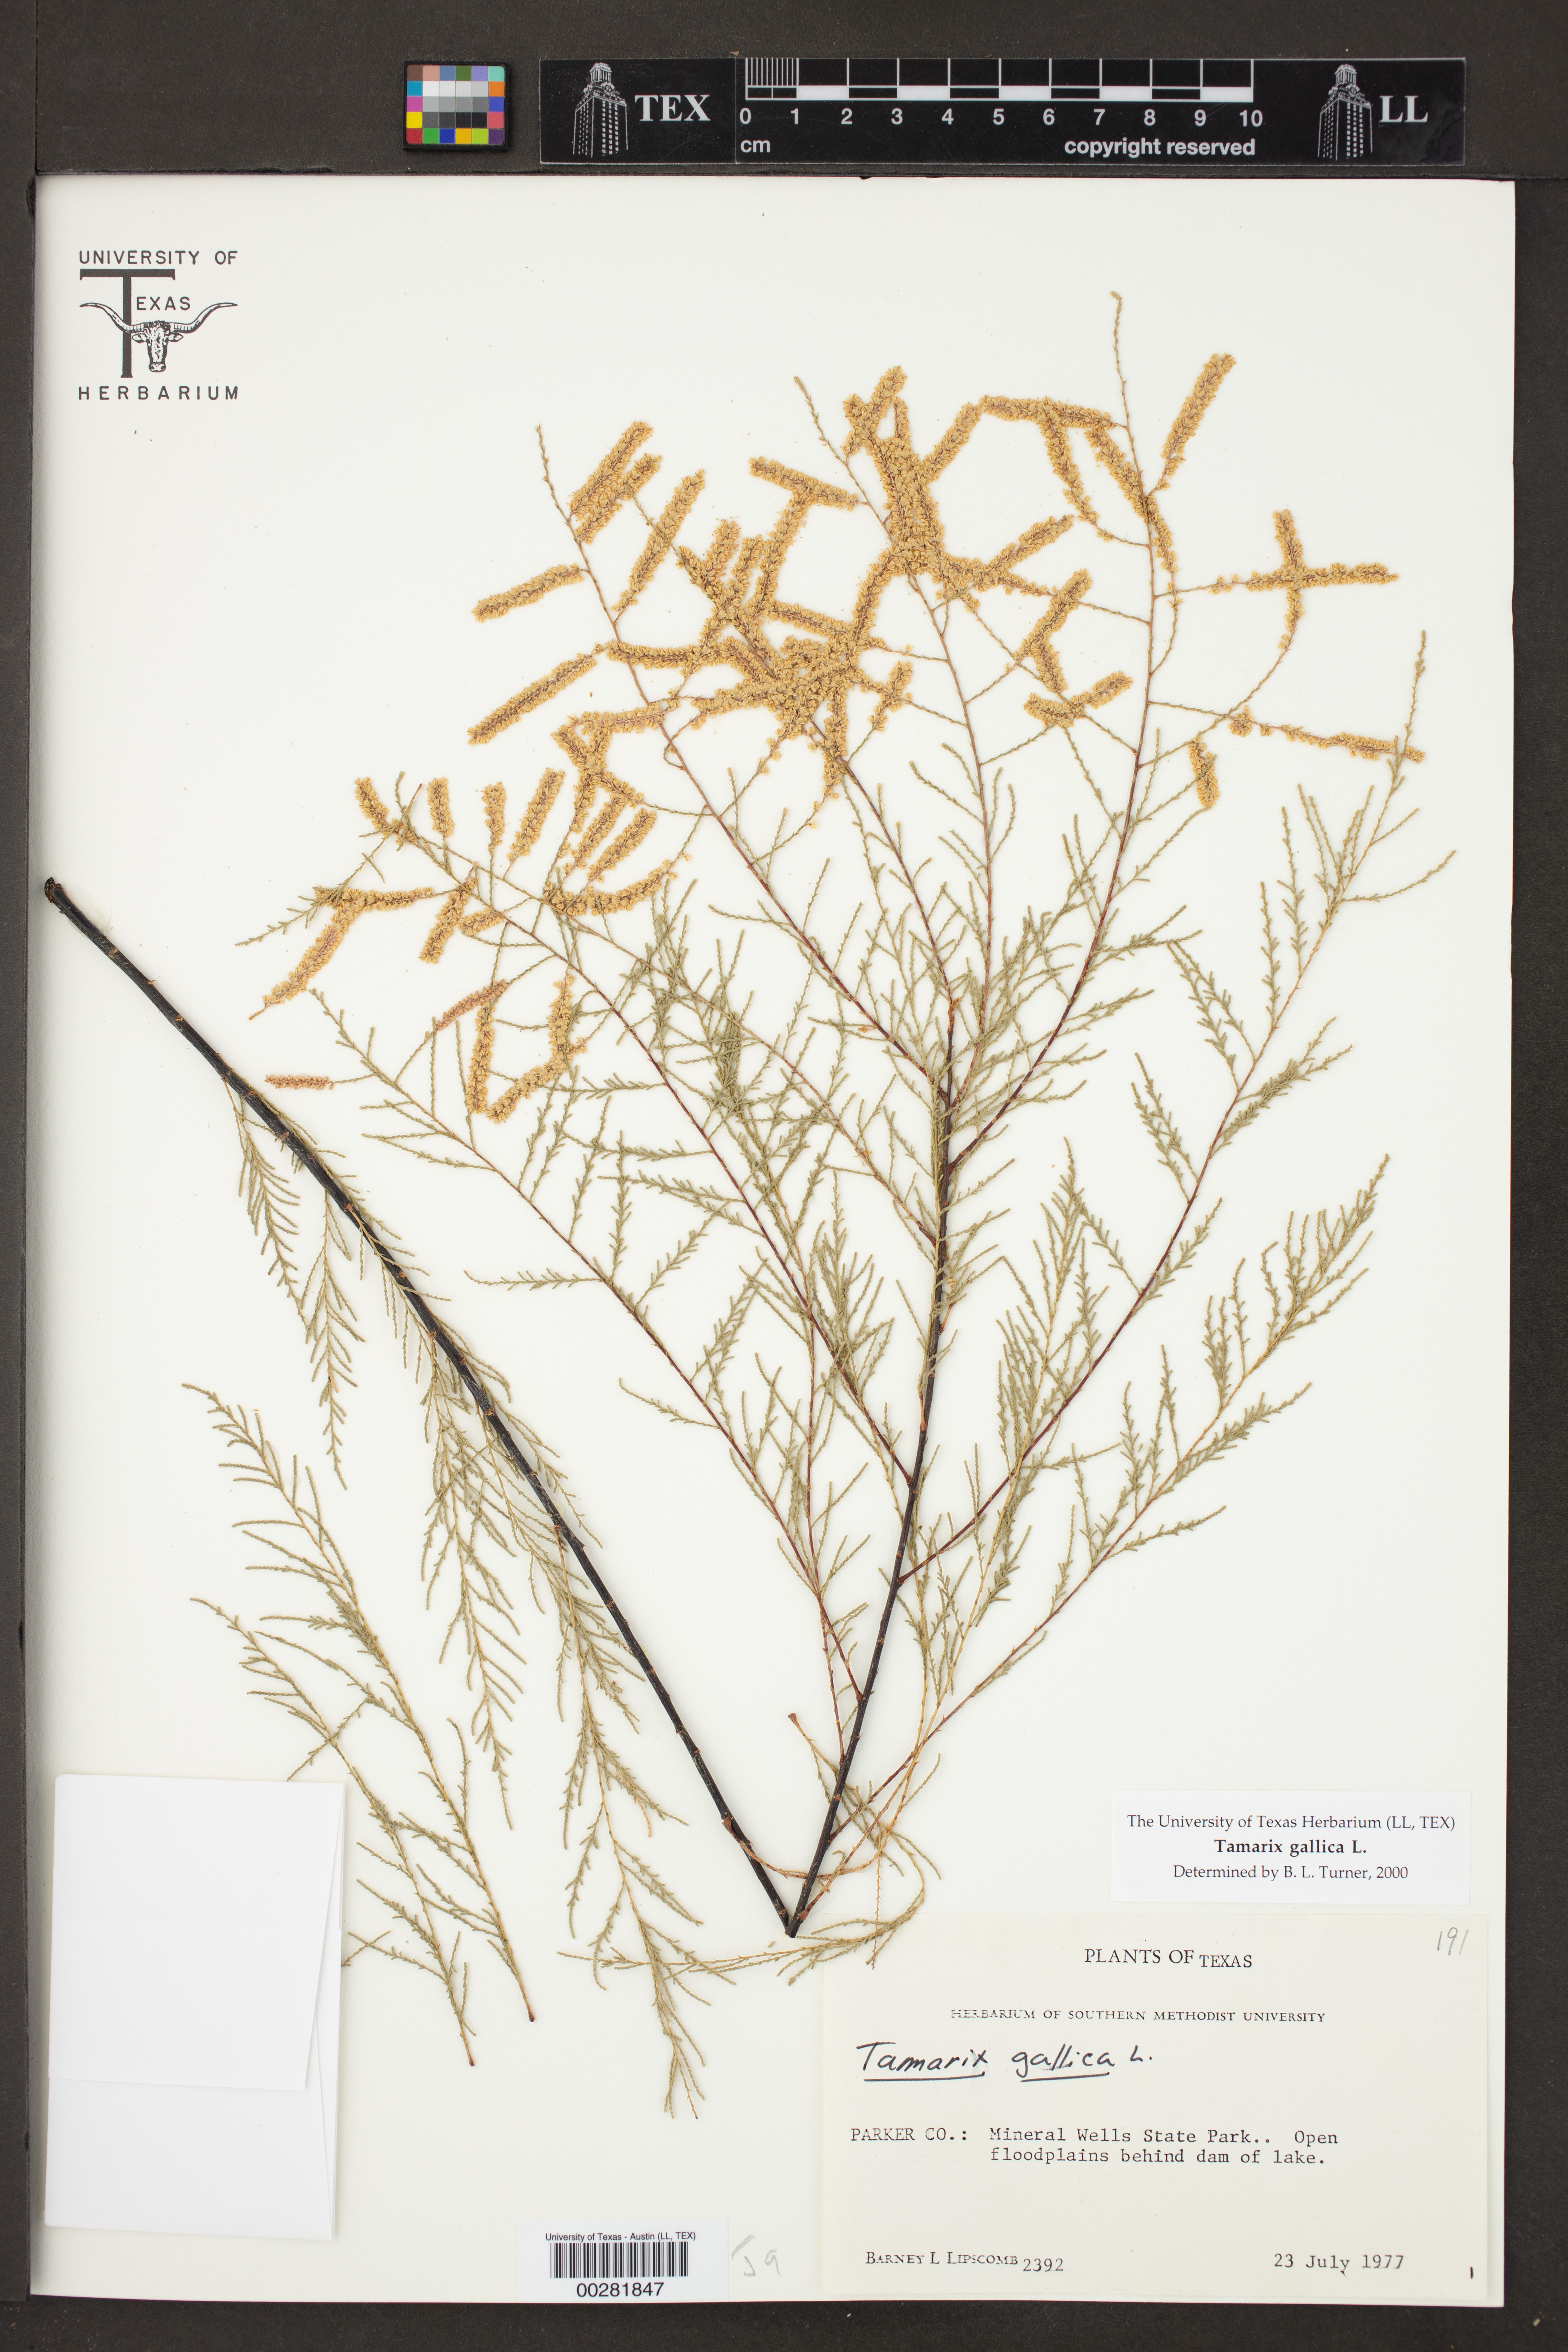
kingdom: Plantae
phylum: Tracheophyta
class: Magnoliopsida
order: Caryophyllales
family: Tamaricaceae
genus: Tamarix
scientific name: Tamarix gallica
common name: Tamarisk
